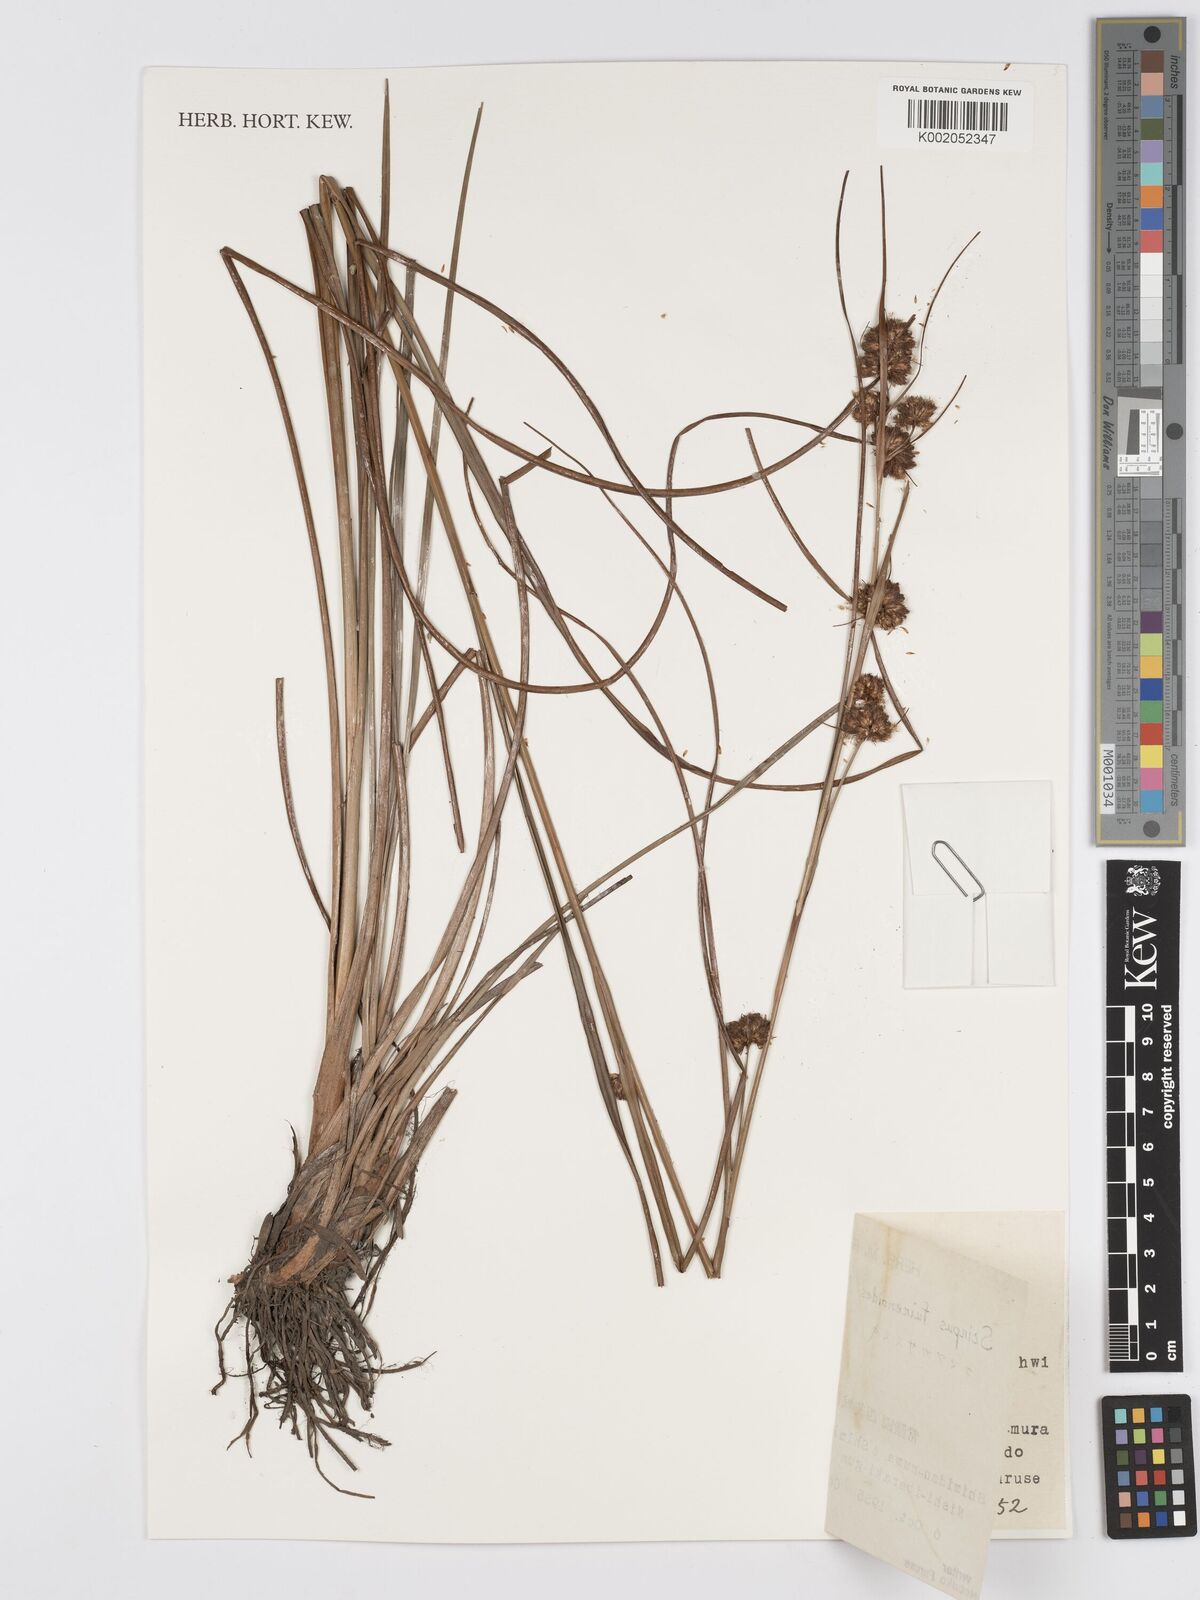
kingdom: Plantae
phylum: Tracheophyta
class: Liliopsida
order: Poales
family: Cyperaceae
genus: Scirpus
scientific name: Scirpus fuirenoides
